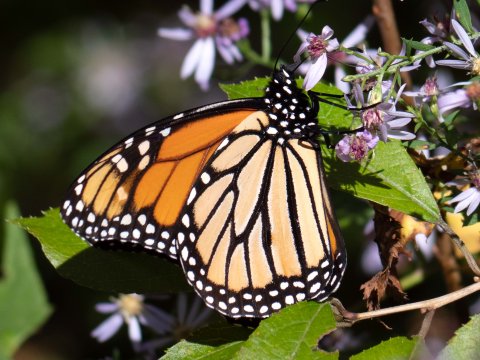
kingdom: Animalia
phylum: Arthropoda
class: Insecta
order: Lepidoptera
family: Nymphalidae
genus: Danaus
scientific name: Danaus plexippus
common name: Monarch
